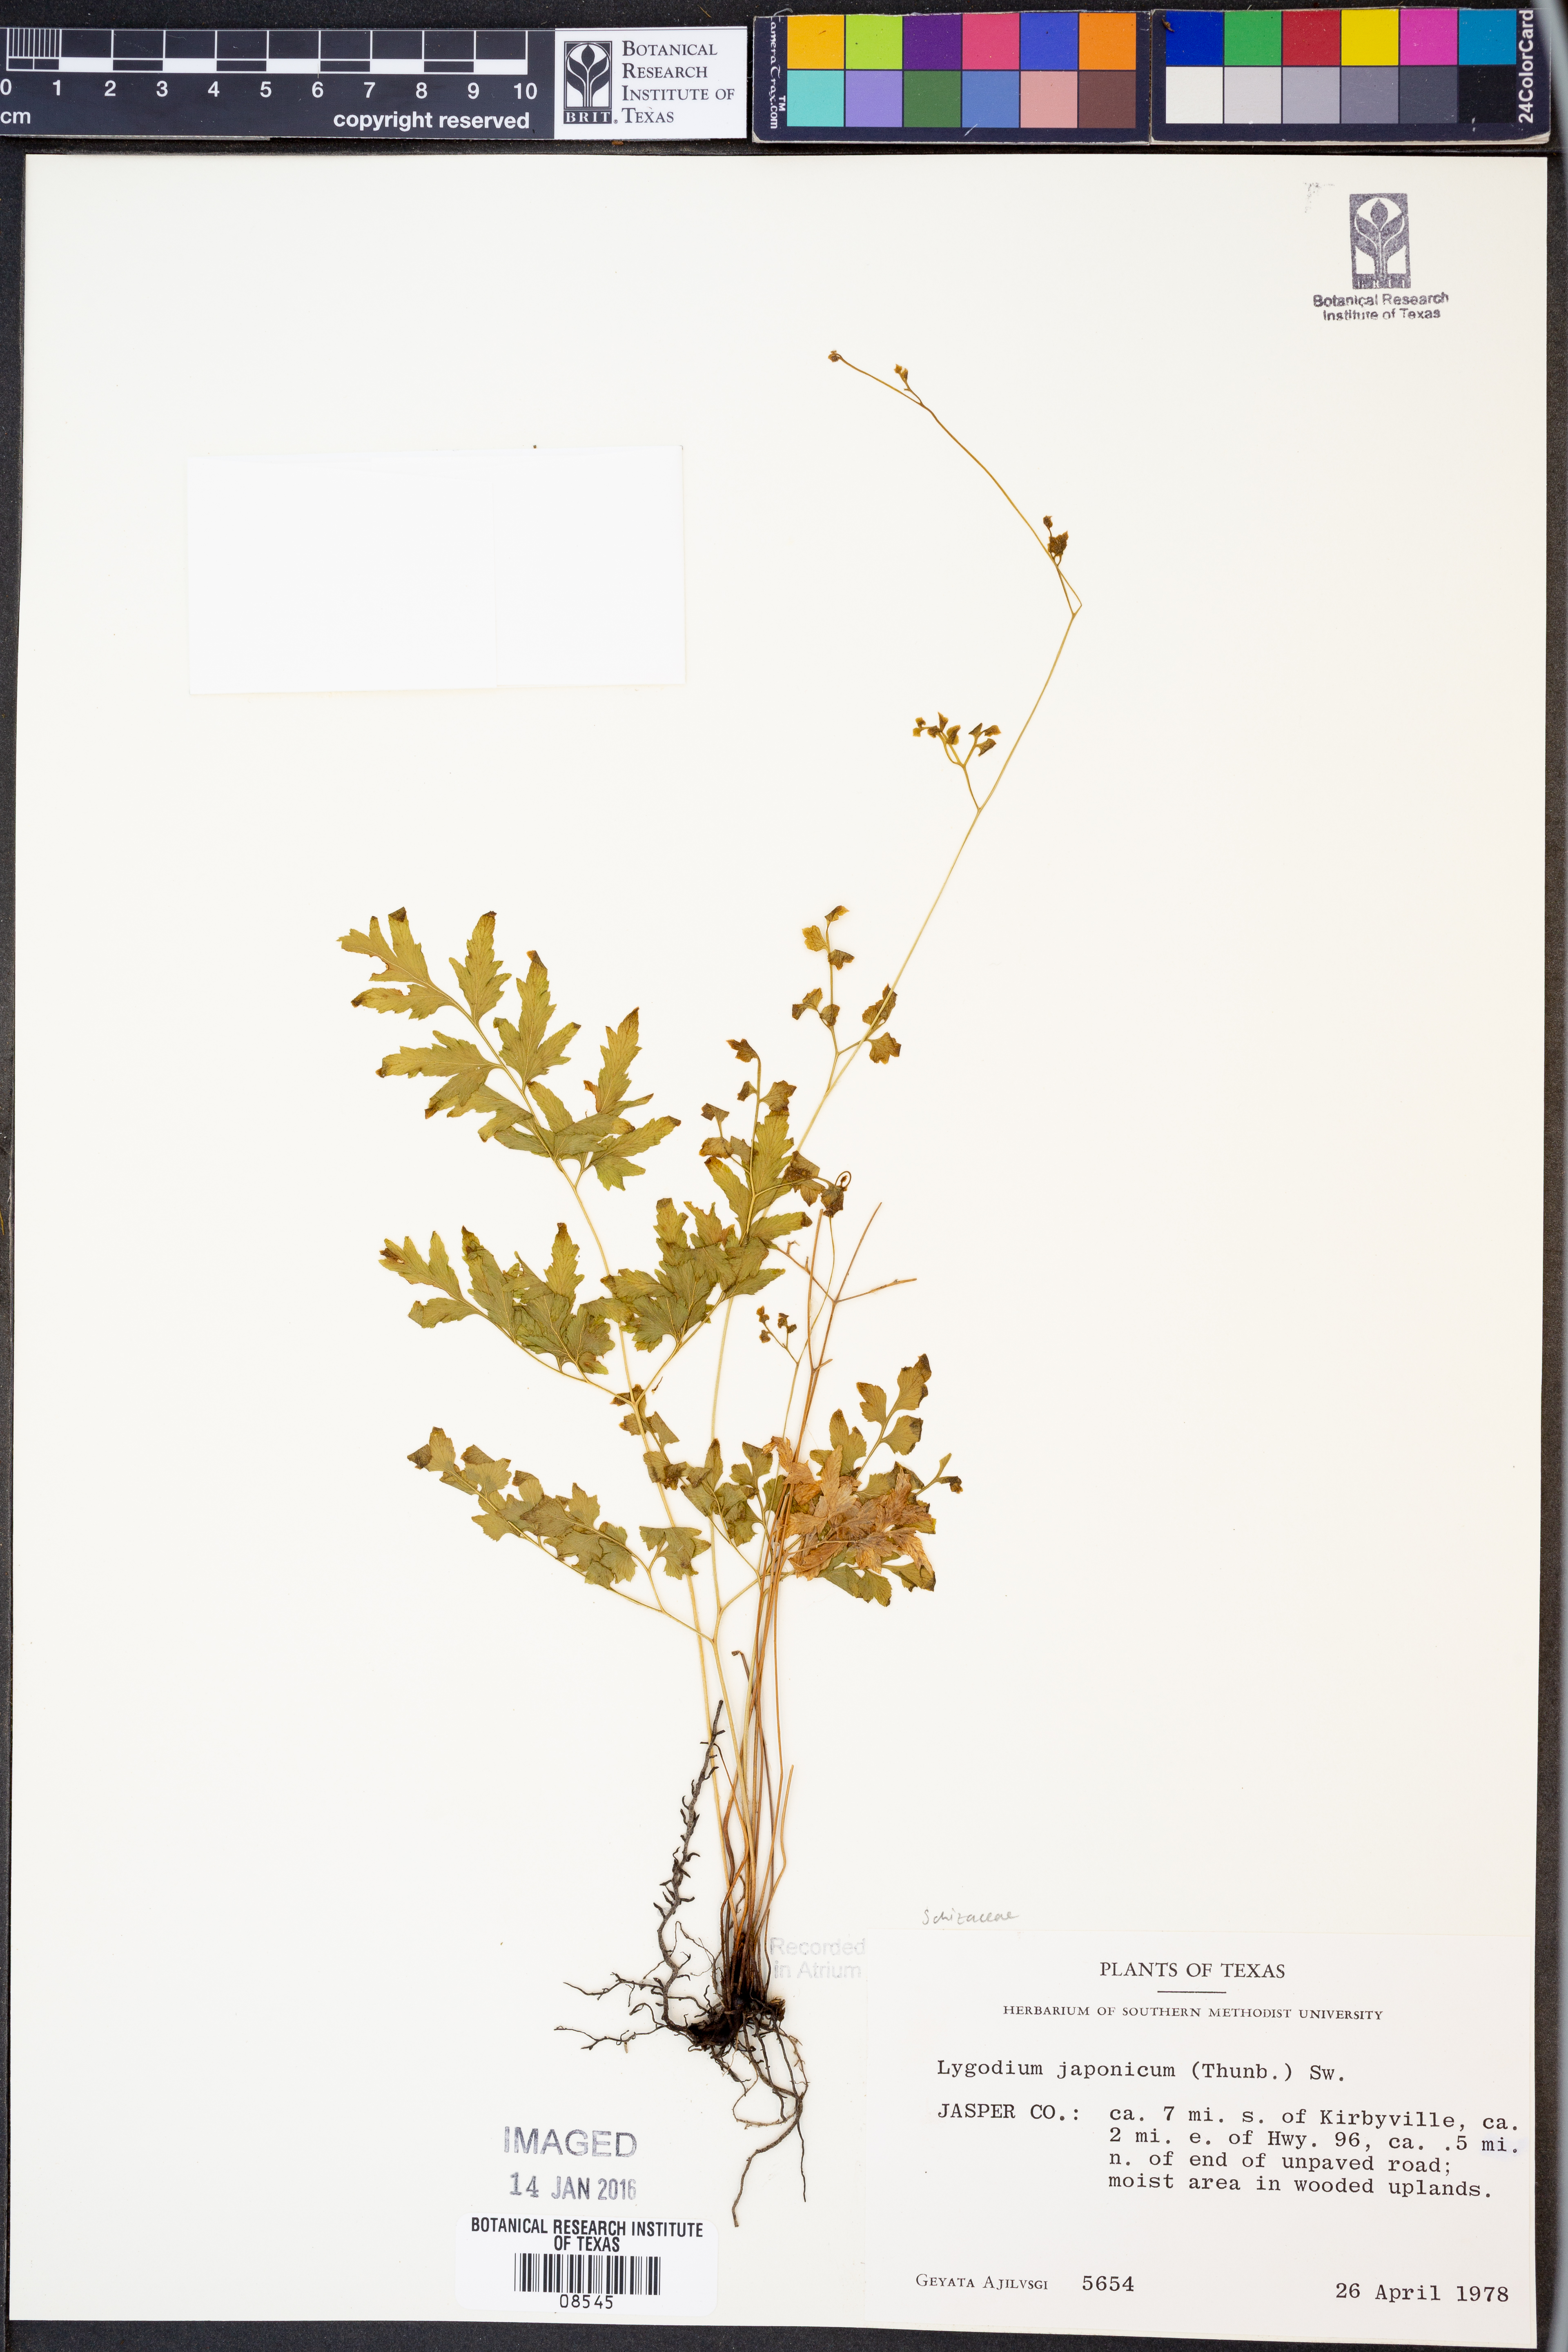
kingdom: Plantae
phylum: Tracheophyta
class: Polypodiopsida
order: Schizaeales
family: Lygodiaceae
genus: Lygodium
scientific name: Lygodium japonicum
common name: Japanese climbing fern
